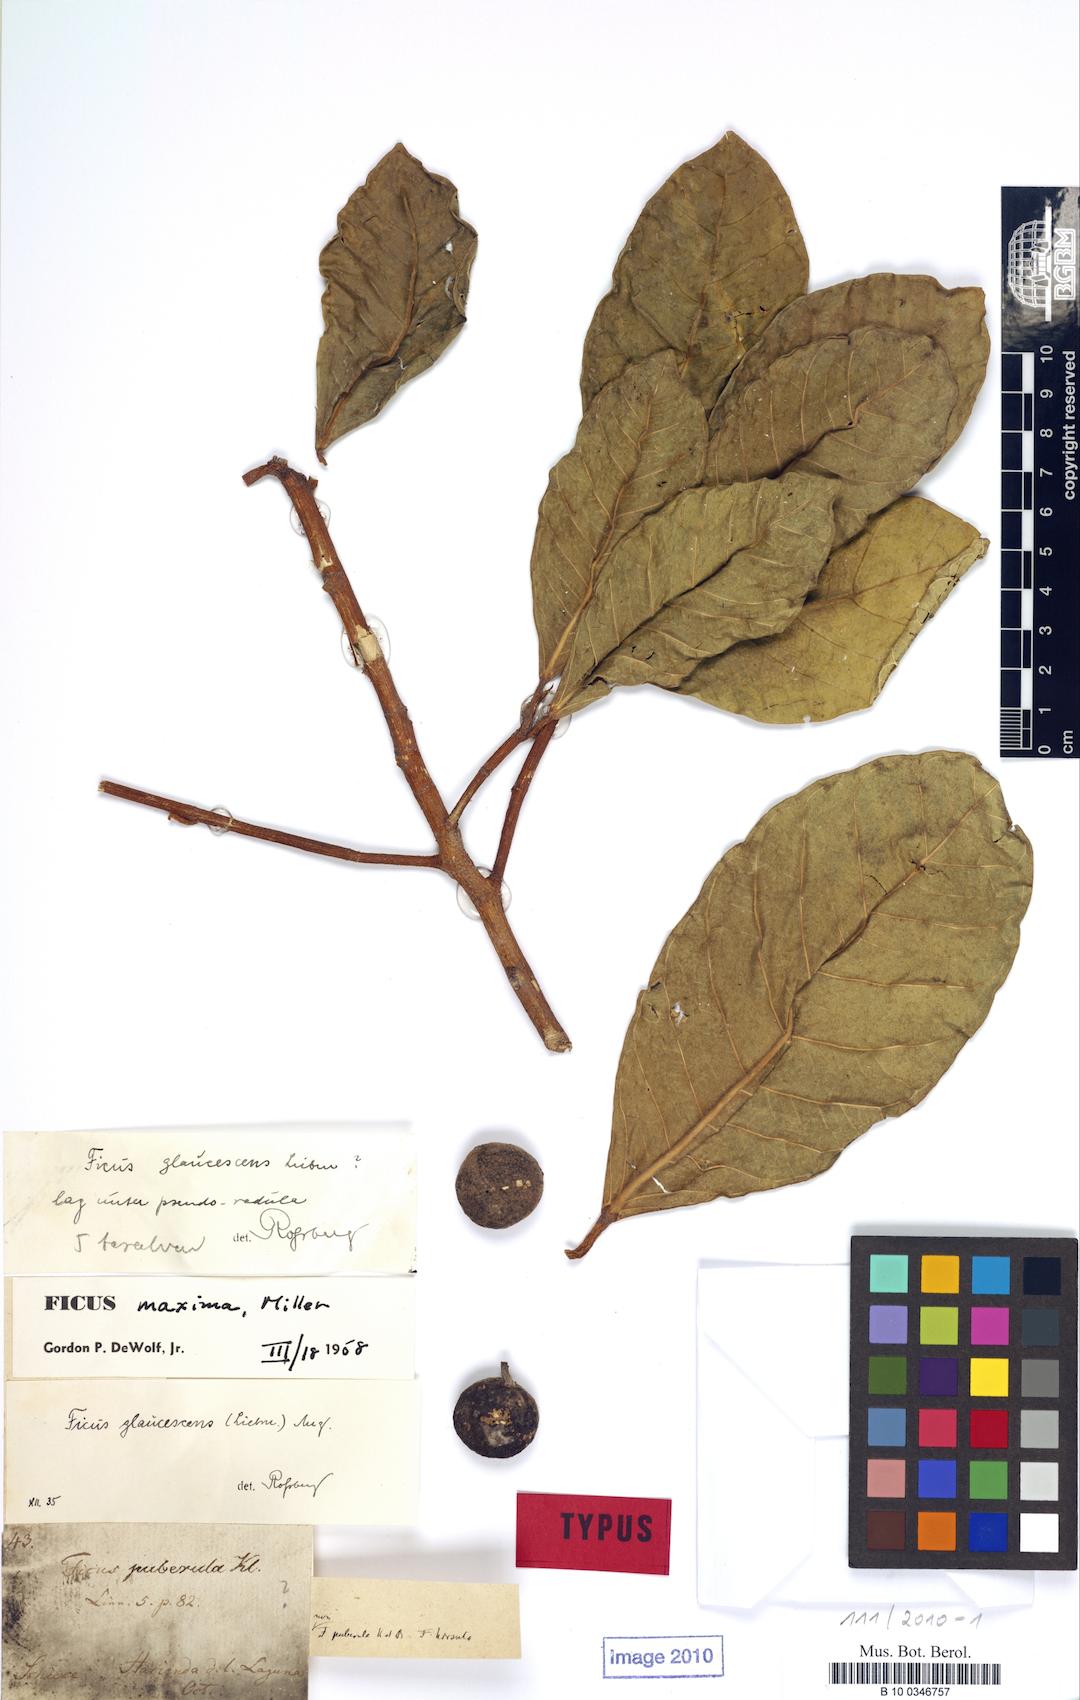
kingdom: Plantae
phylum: Tracheophyta
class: Magnoliopsida
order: Rosales
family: Moraceae
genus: Ficus
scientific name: Ficus maxima
